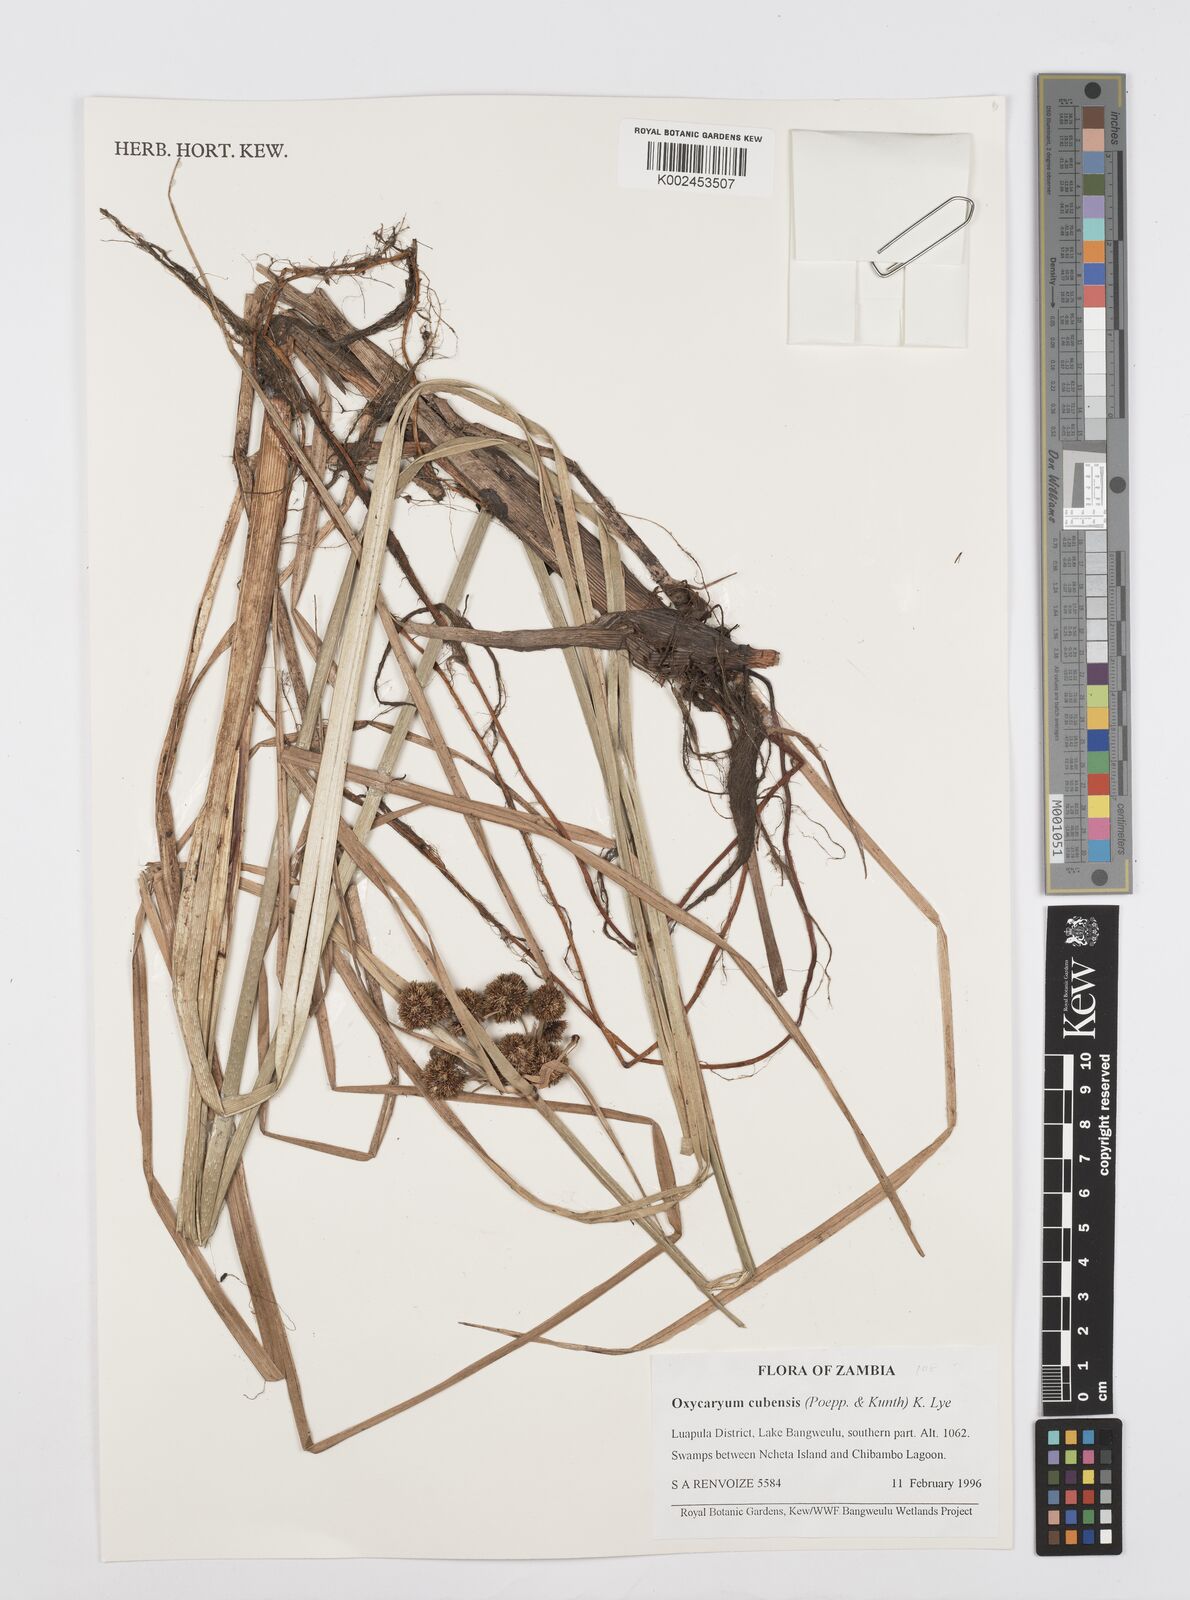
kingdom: Plantae
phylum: Tracheophyta
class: Liliopsida
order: Poales
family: Cyperaceae
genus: Cyperus
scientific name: Cyperus elegans
